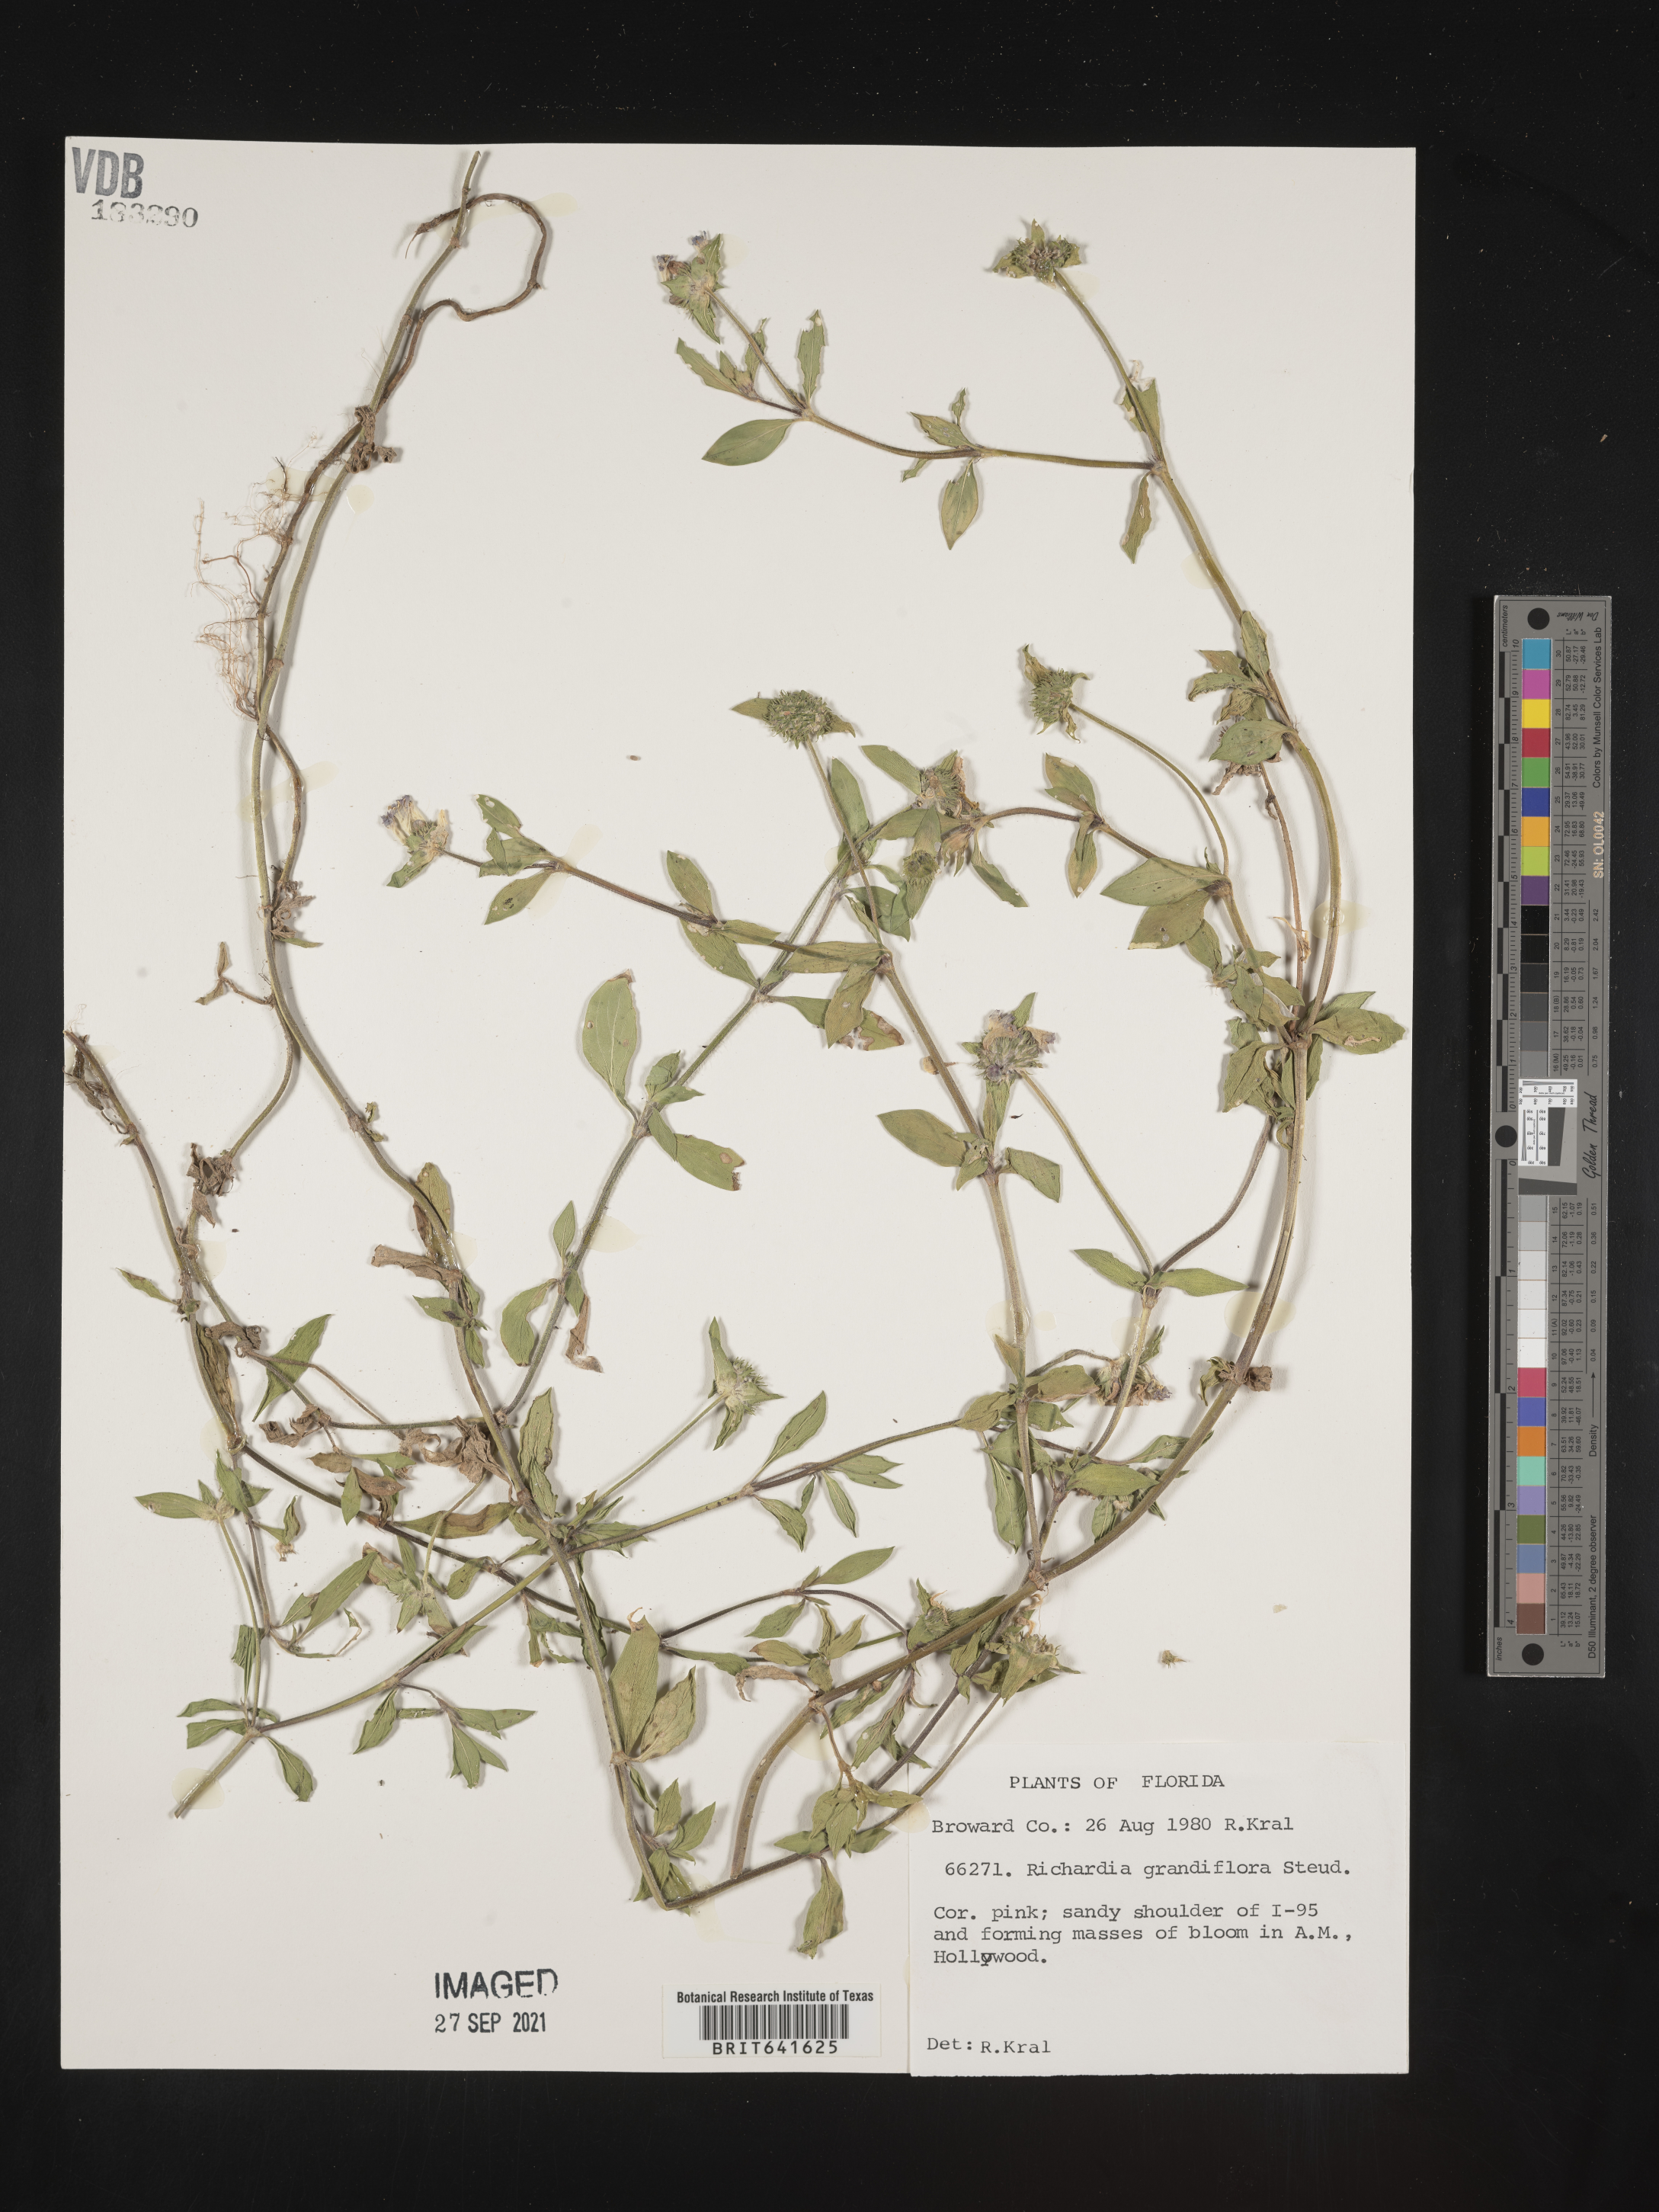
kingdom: Plantae
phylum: Tracheophyta
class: Magnoliopsida
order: Gentianales
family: Rubiaceae
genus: Richardia
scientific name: Richardia grandiflora
